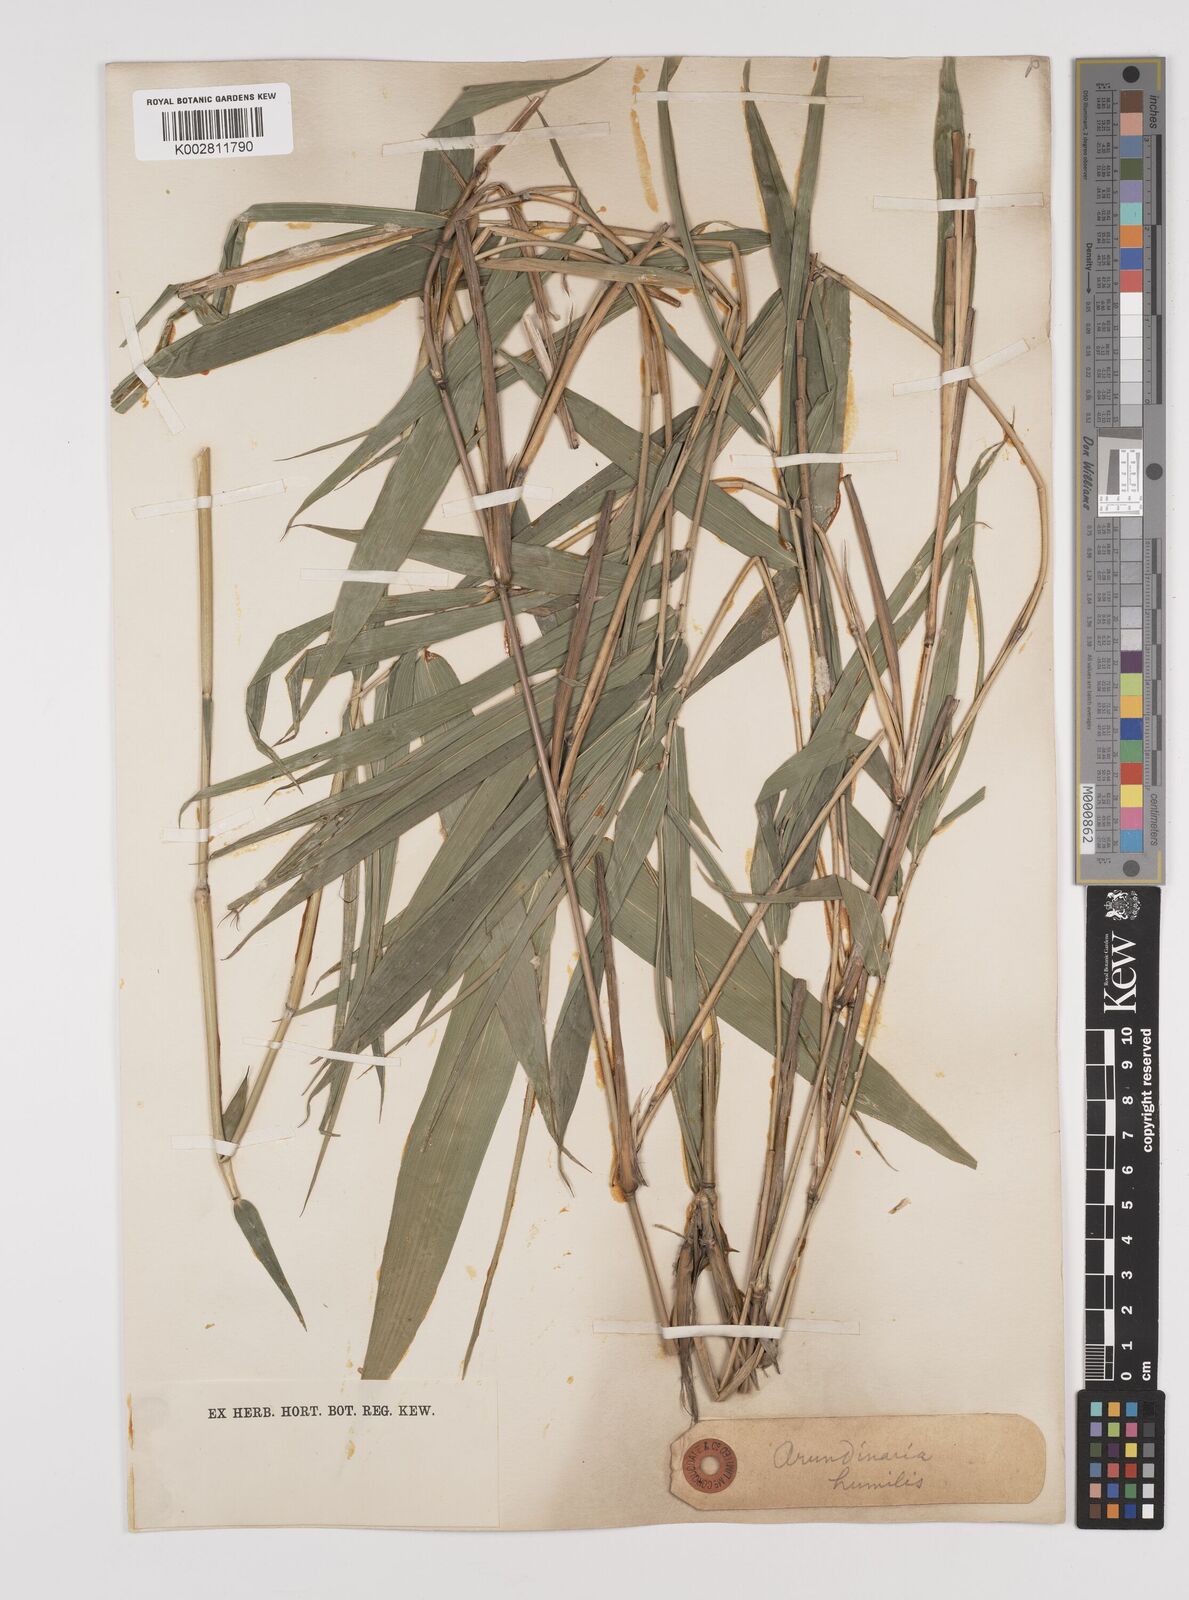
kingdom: Plantae
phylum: Tracheophyta
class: Liliopsida
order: Poales
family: Poaceae
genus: Pseudosasa
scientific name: Pseudosasa humilis
